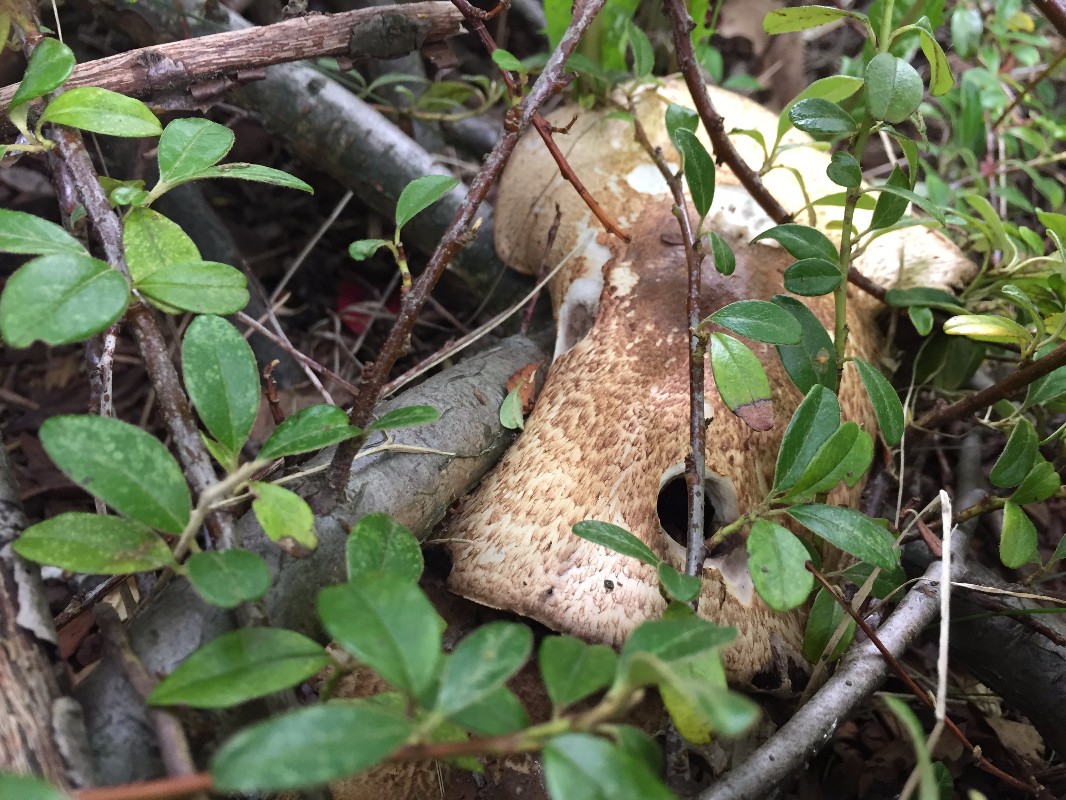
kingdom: Fungi
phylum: Basidiomycota
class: Agaricomycetes
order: Agaricales
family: Agaricaceae
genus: Agaricus
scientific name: Agaricus augustus
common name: prægtig champignon
